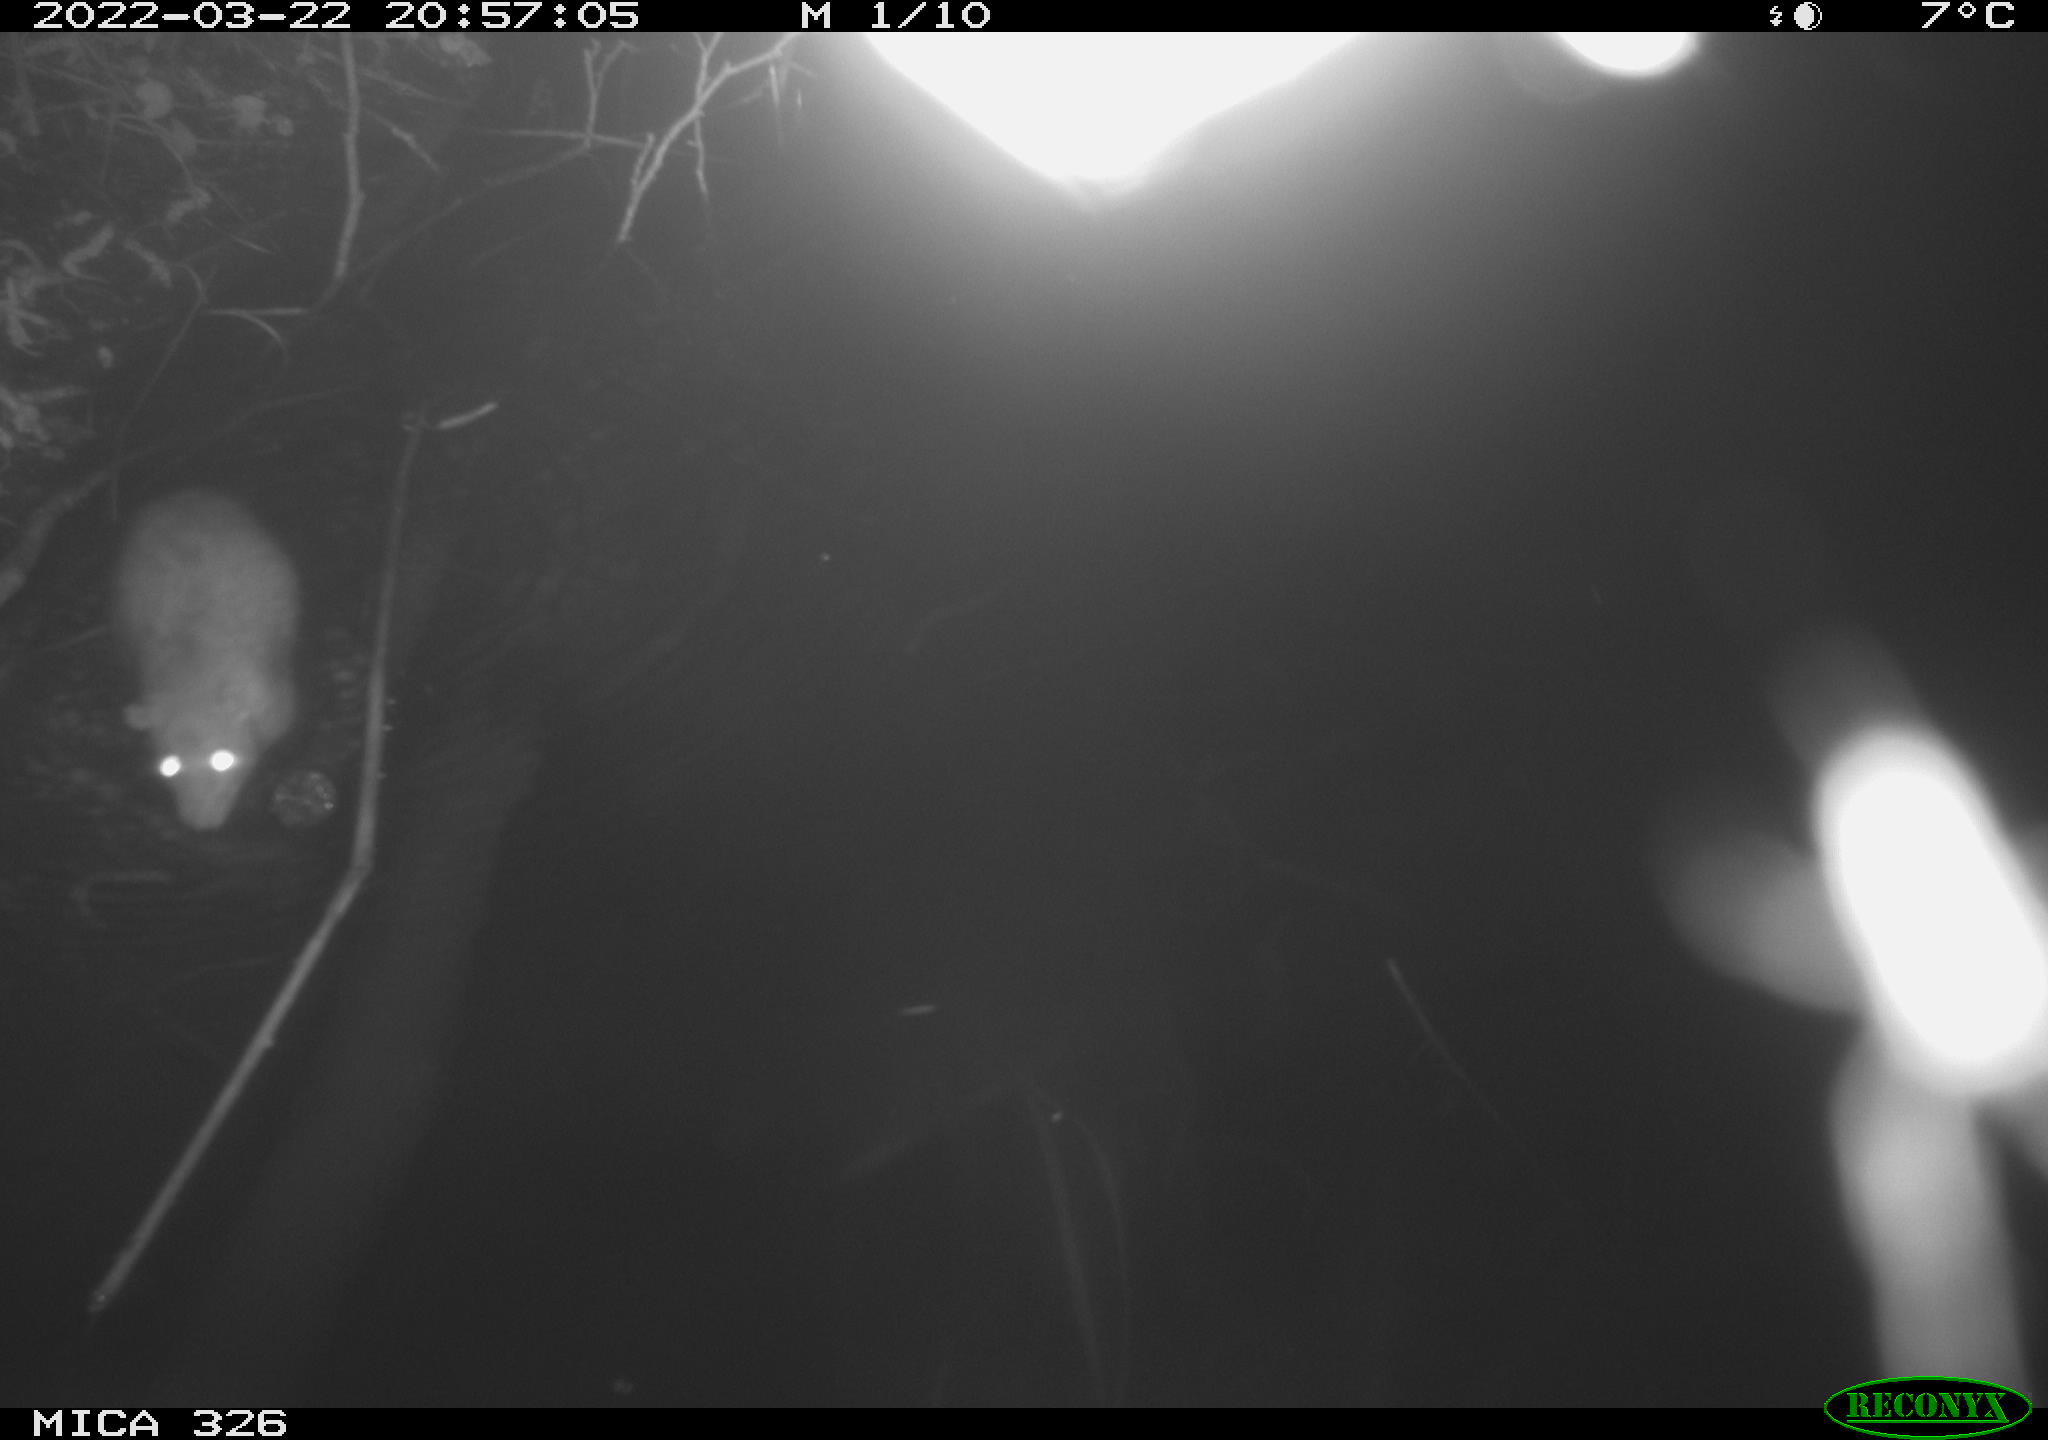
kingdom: Animalia
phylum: Chordata
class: Mammalia
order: Rodentia
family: Muridae
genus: Rattus
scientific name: Rattus norvegicus
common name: Brown rat
